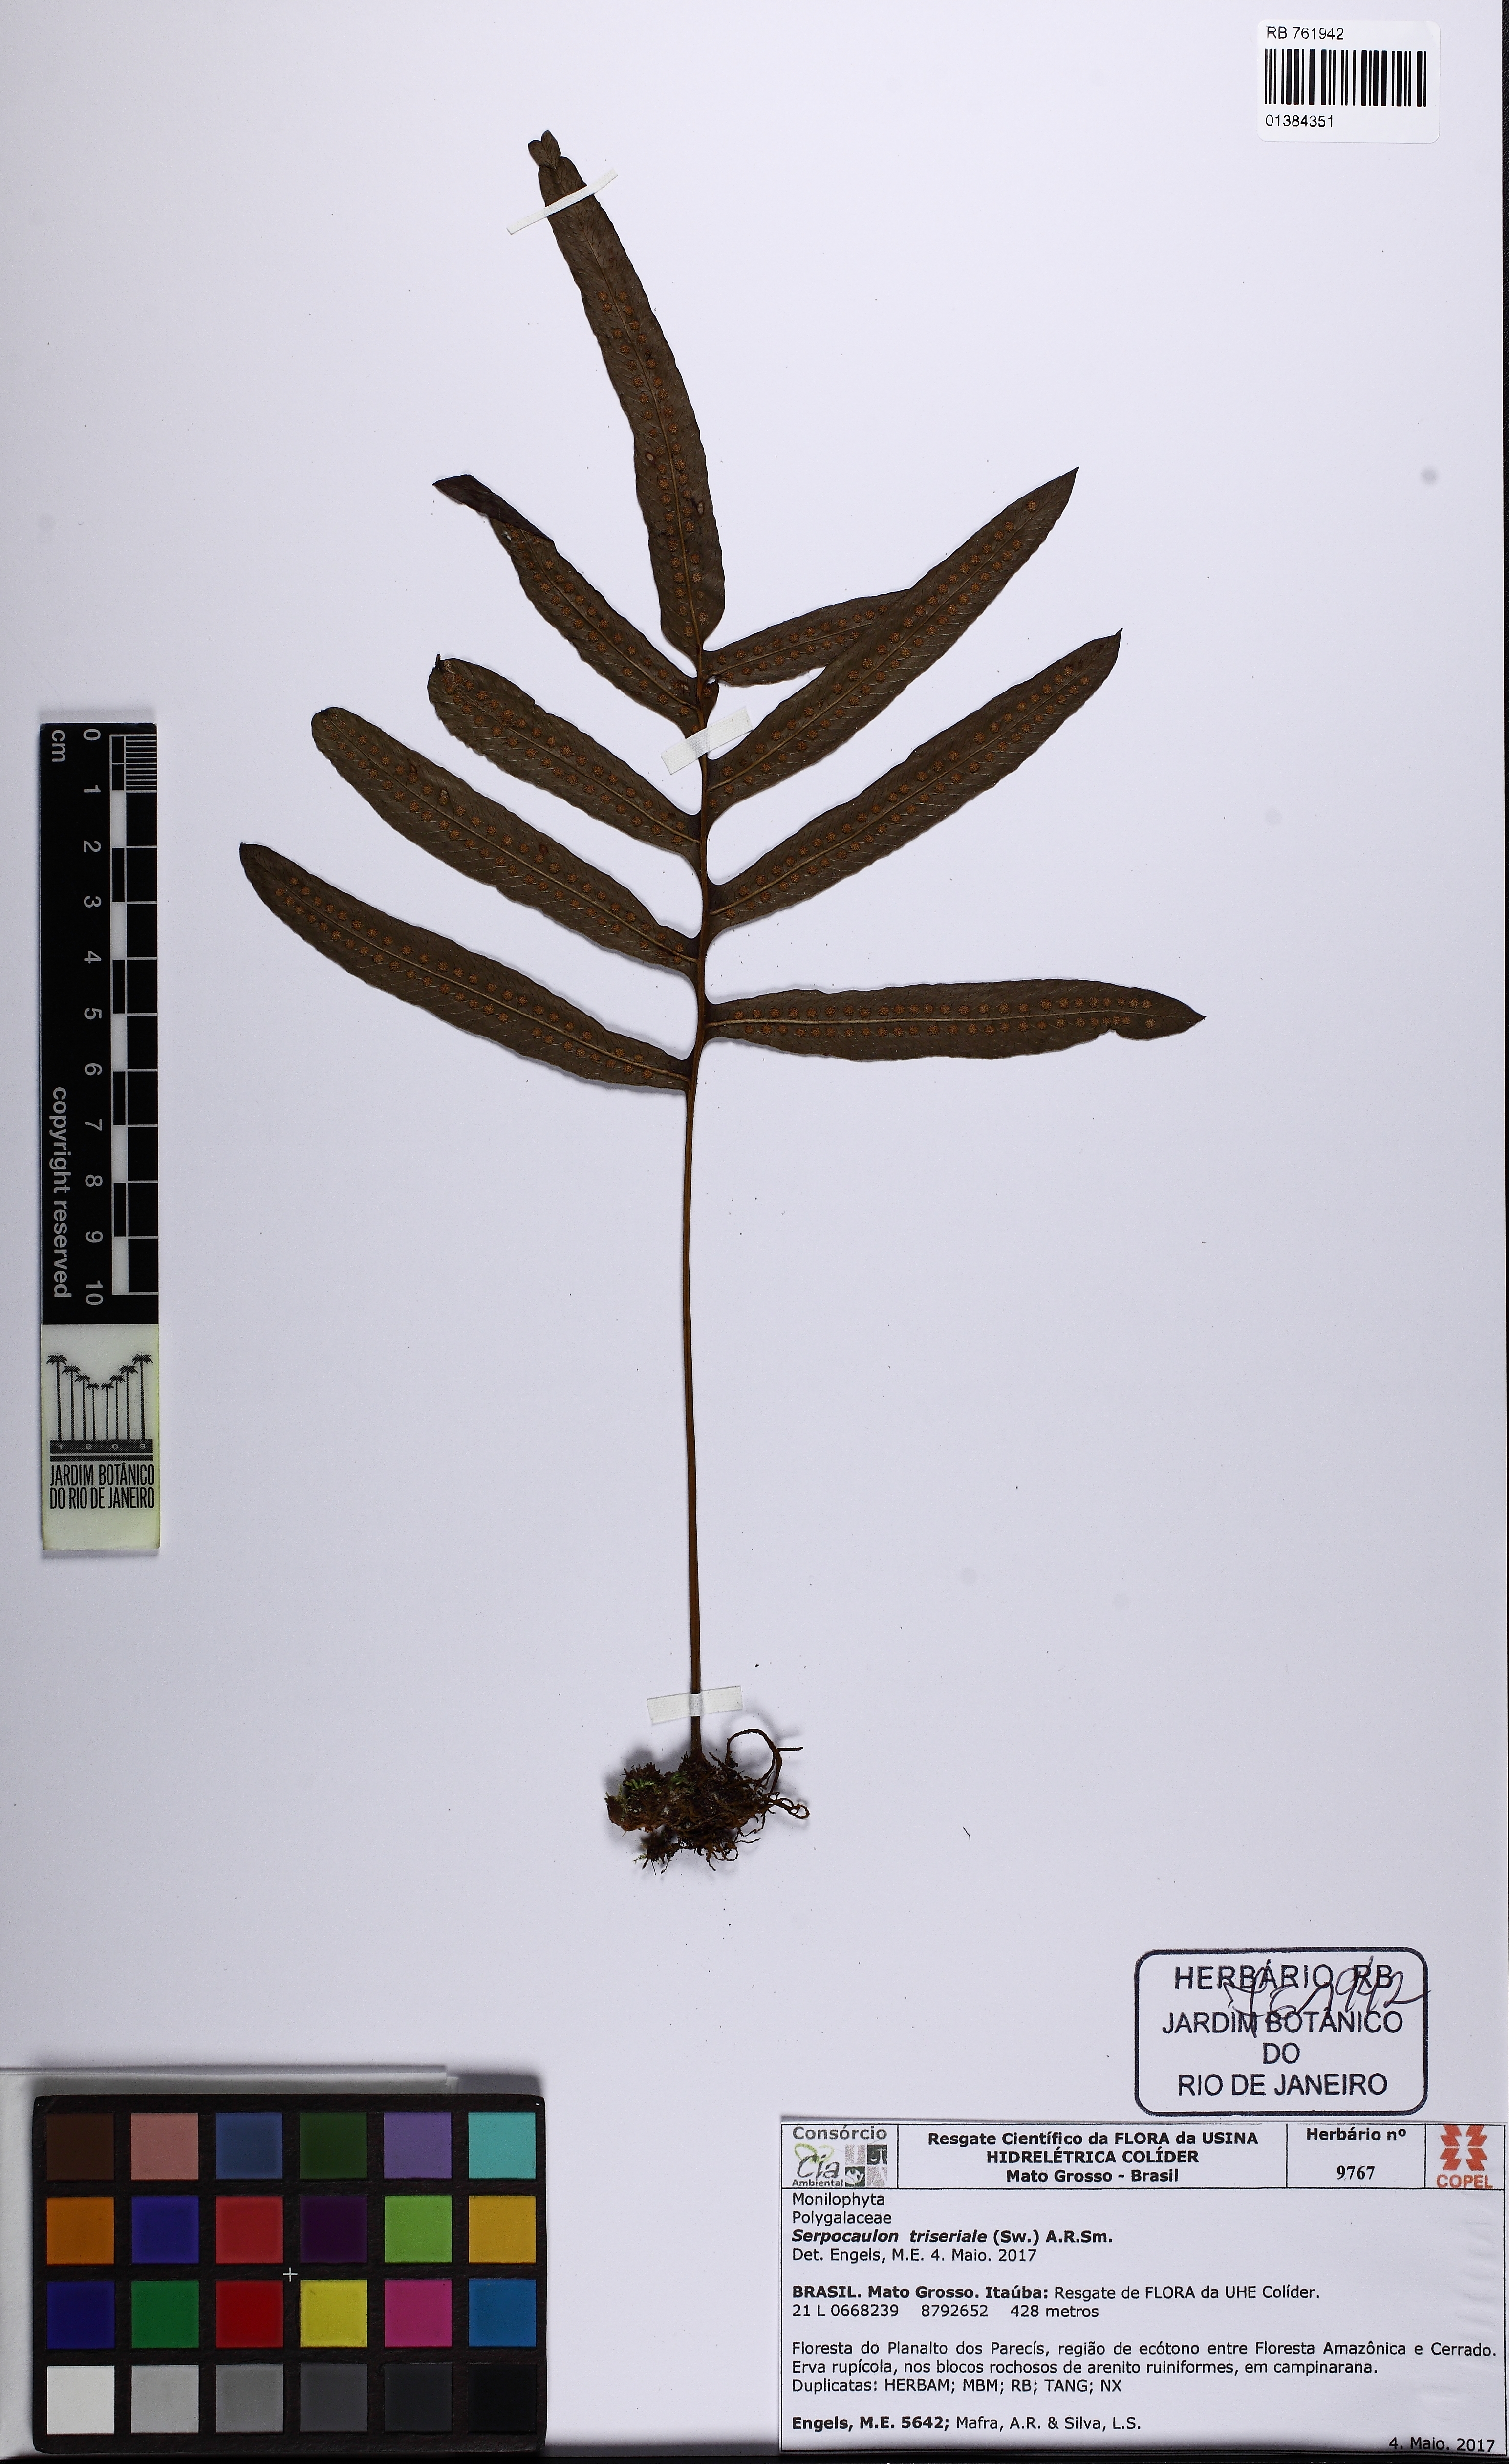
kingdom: Plantae
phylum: Tracheophyta
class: Polypodiopsida
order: Polypodiales
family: Polypodiaceae
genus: Serpocaulon
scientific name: Serpocaulon triseriale
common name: Angle-vein fern
